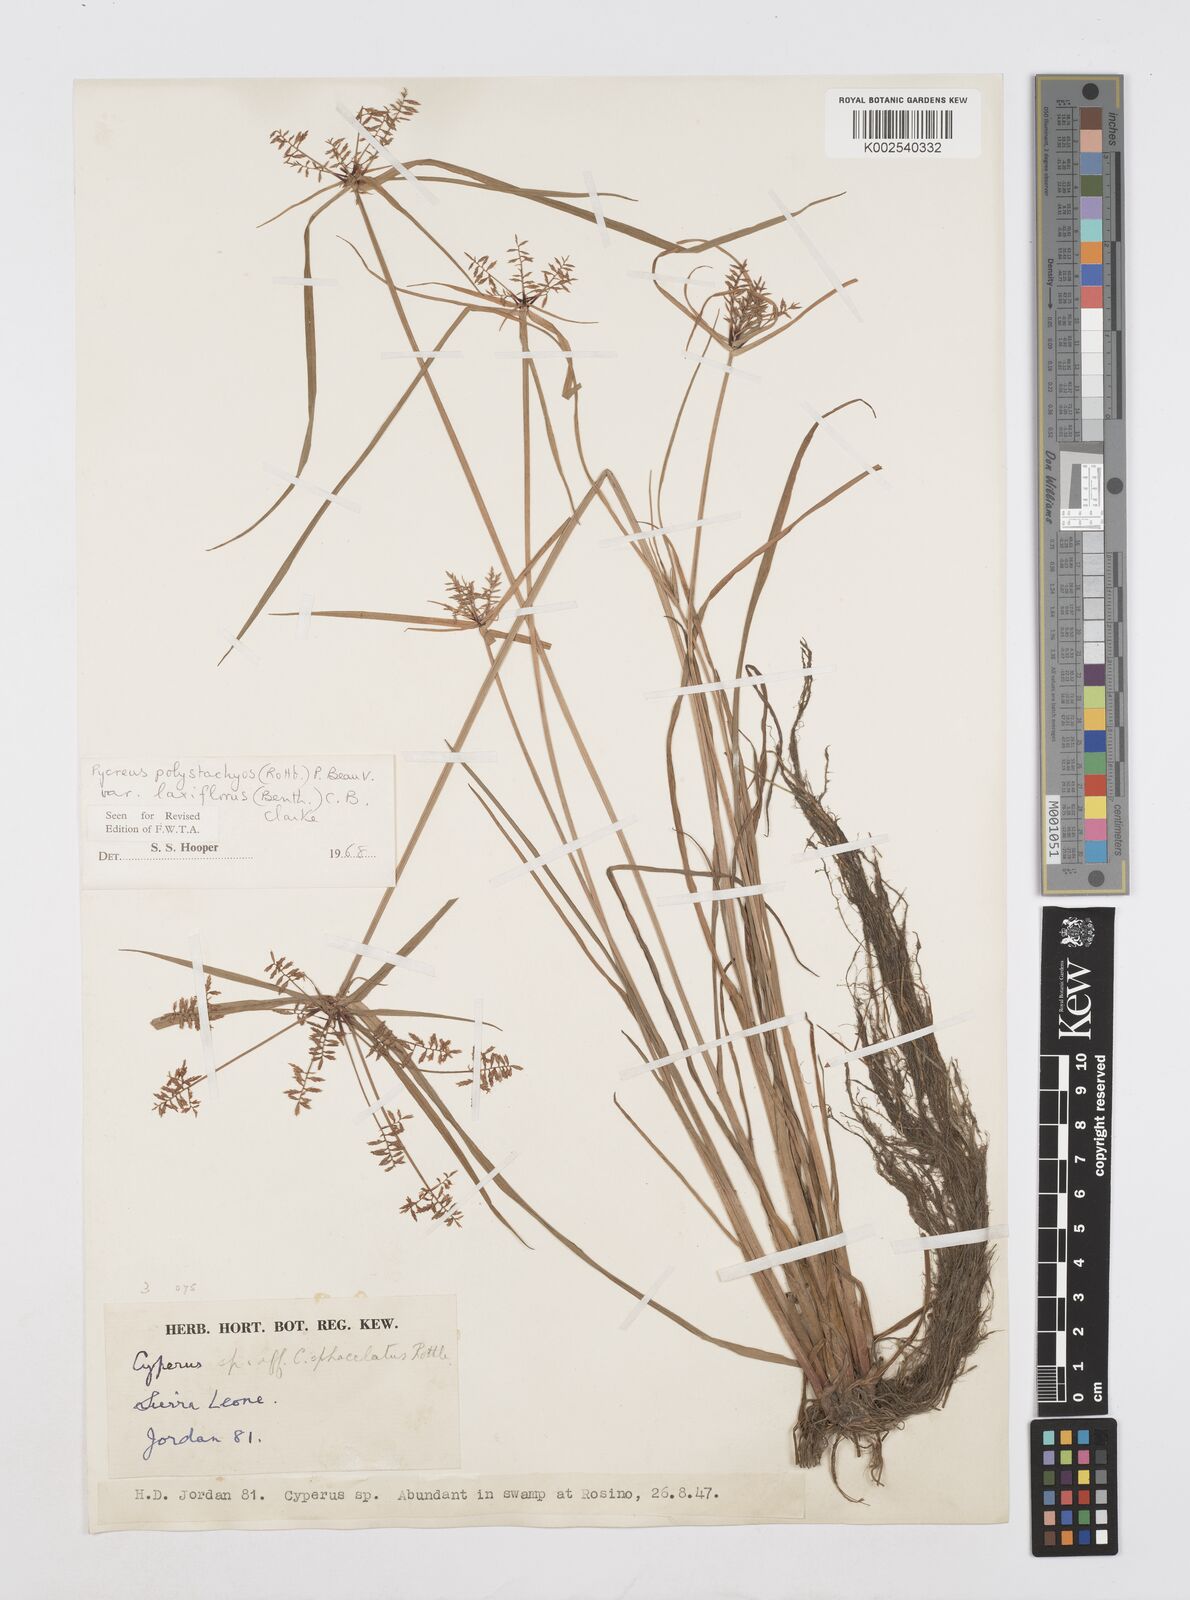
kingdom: Plantae
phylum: Tracheophyta
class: Liliopsida
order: Poales
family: Cyperaceae
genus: Cyperus
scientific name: Cyperus polystachyos
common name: Bunchy flat sedge
